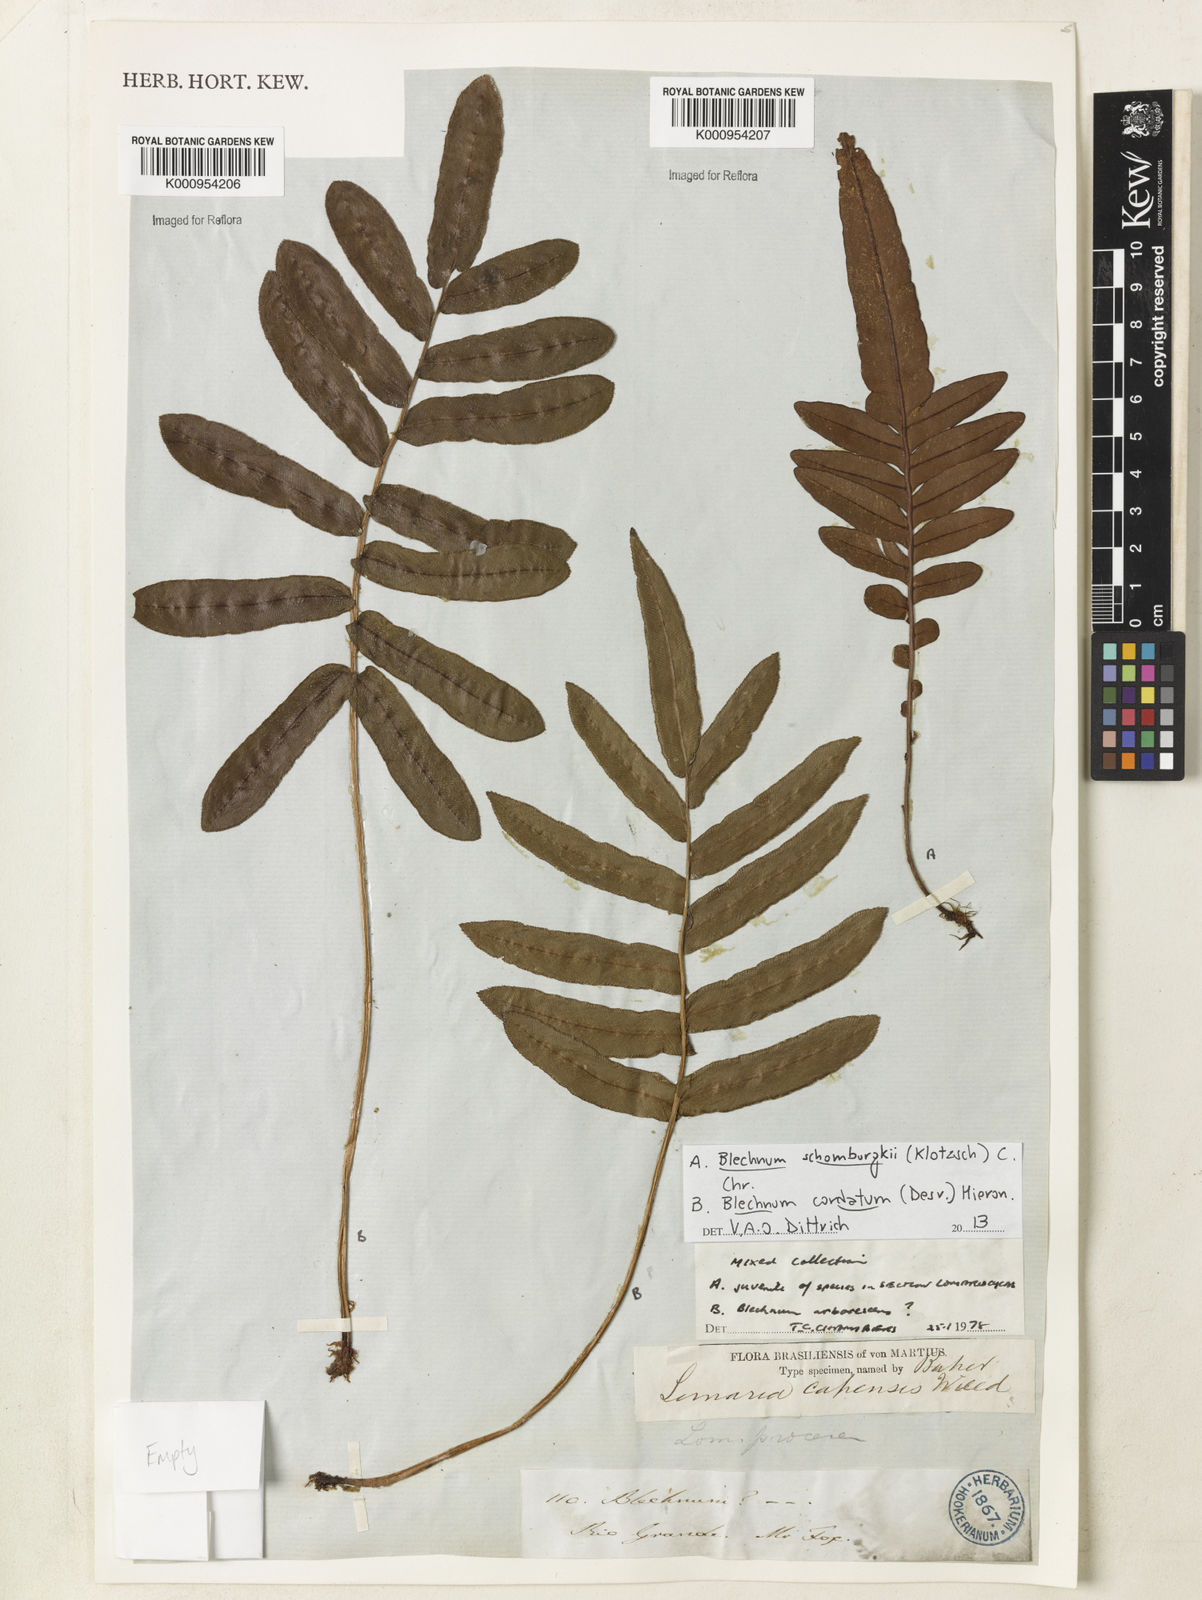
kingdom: Plantae
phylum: Tracheophyta
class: Polypodiopsida
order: Polypodiales
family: Blechnaceae
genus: Parablechnum
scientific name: Parablechnum cordatum
